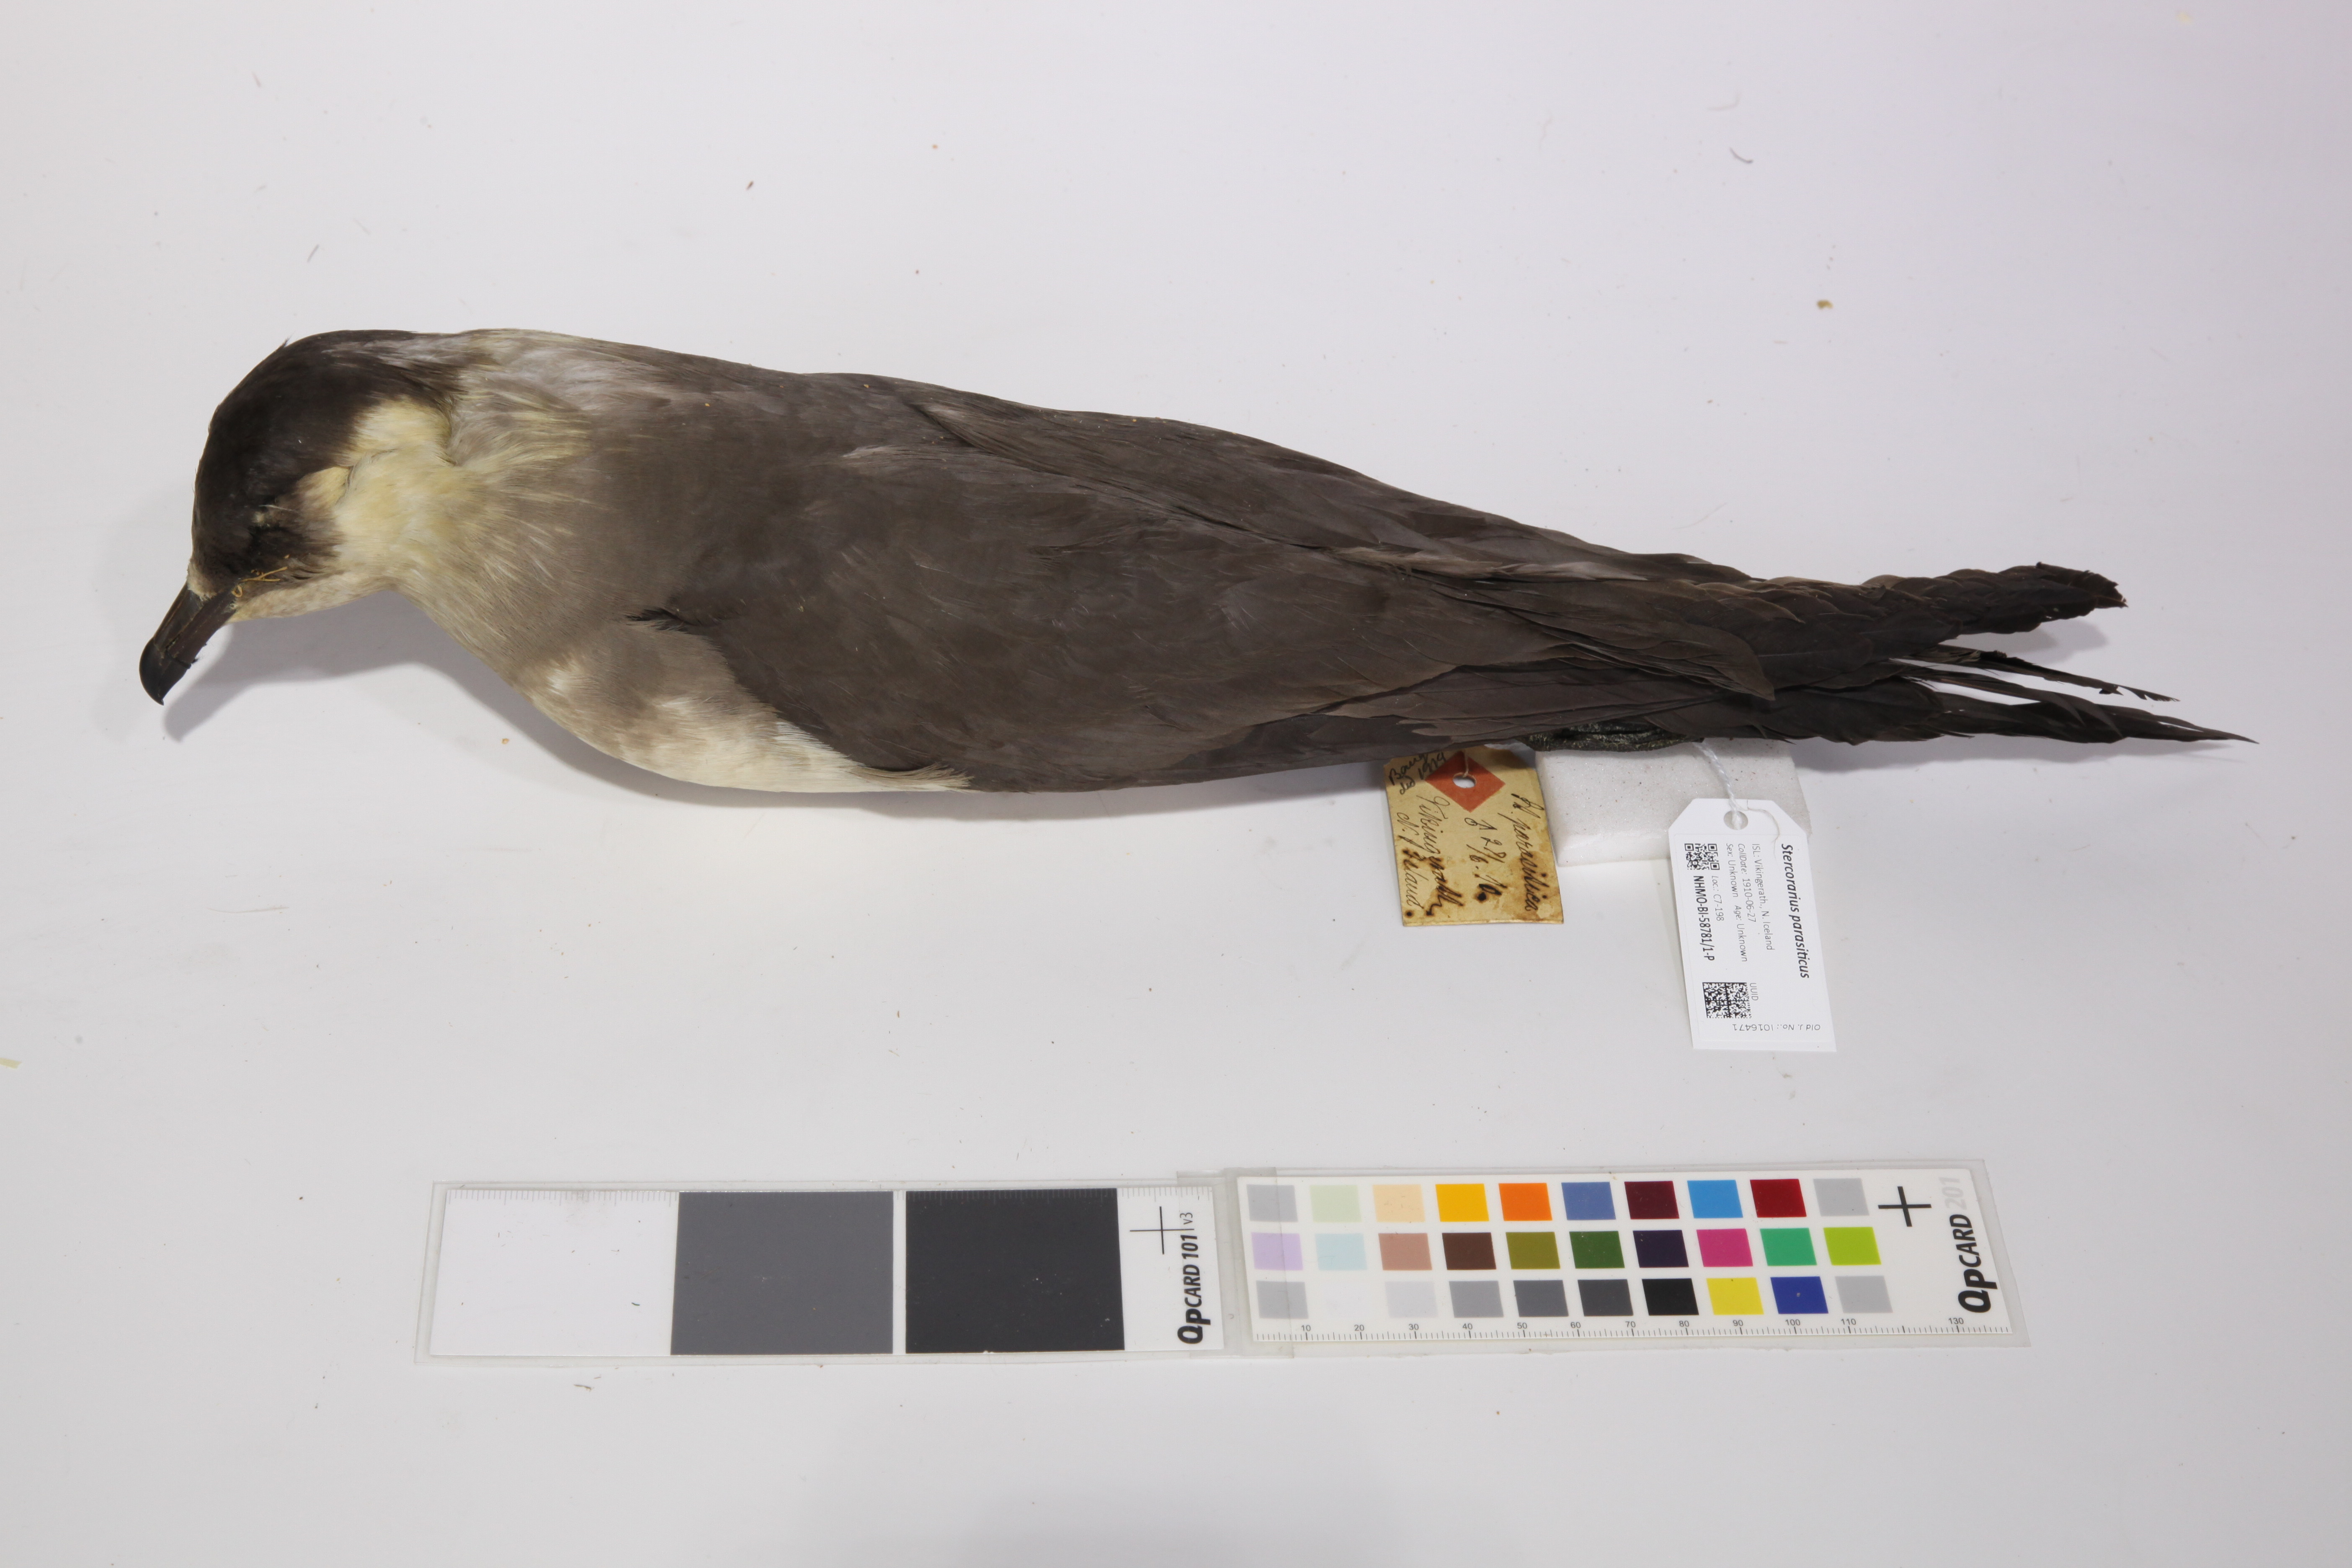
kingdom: Animalia
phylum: Chordata
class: Aves
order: Charadriiformes
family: Stercorariidae
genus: Stercorarius
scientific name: Stercorarius parasiticus
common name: Parasitic jaeger
